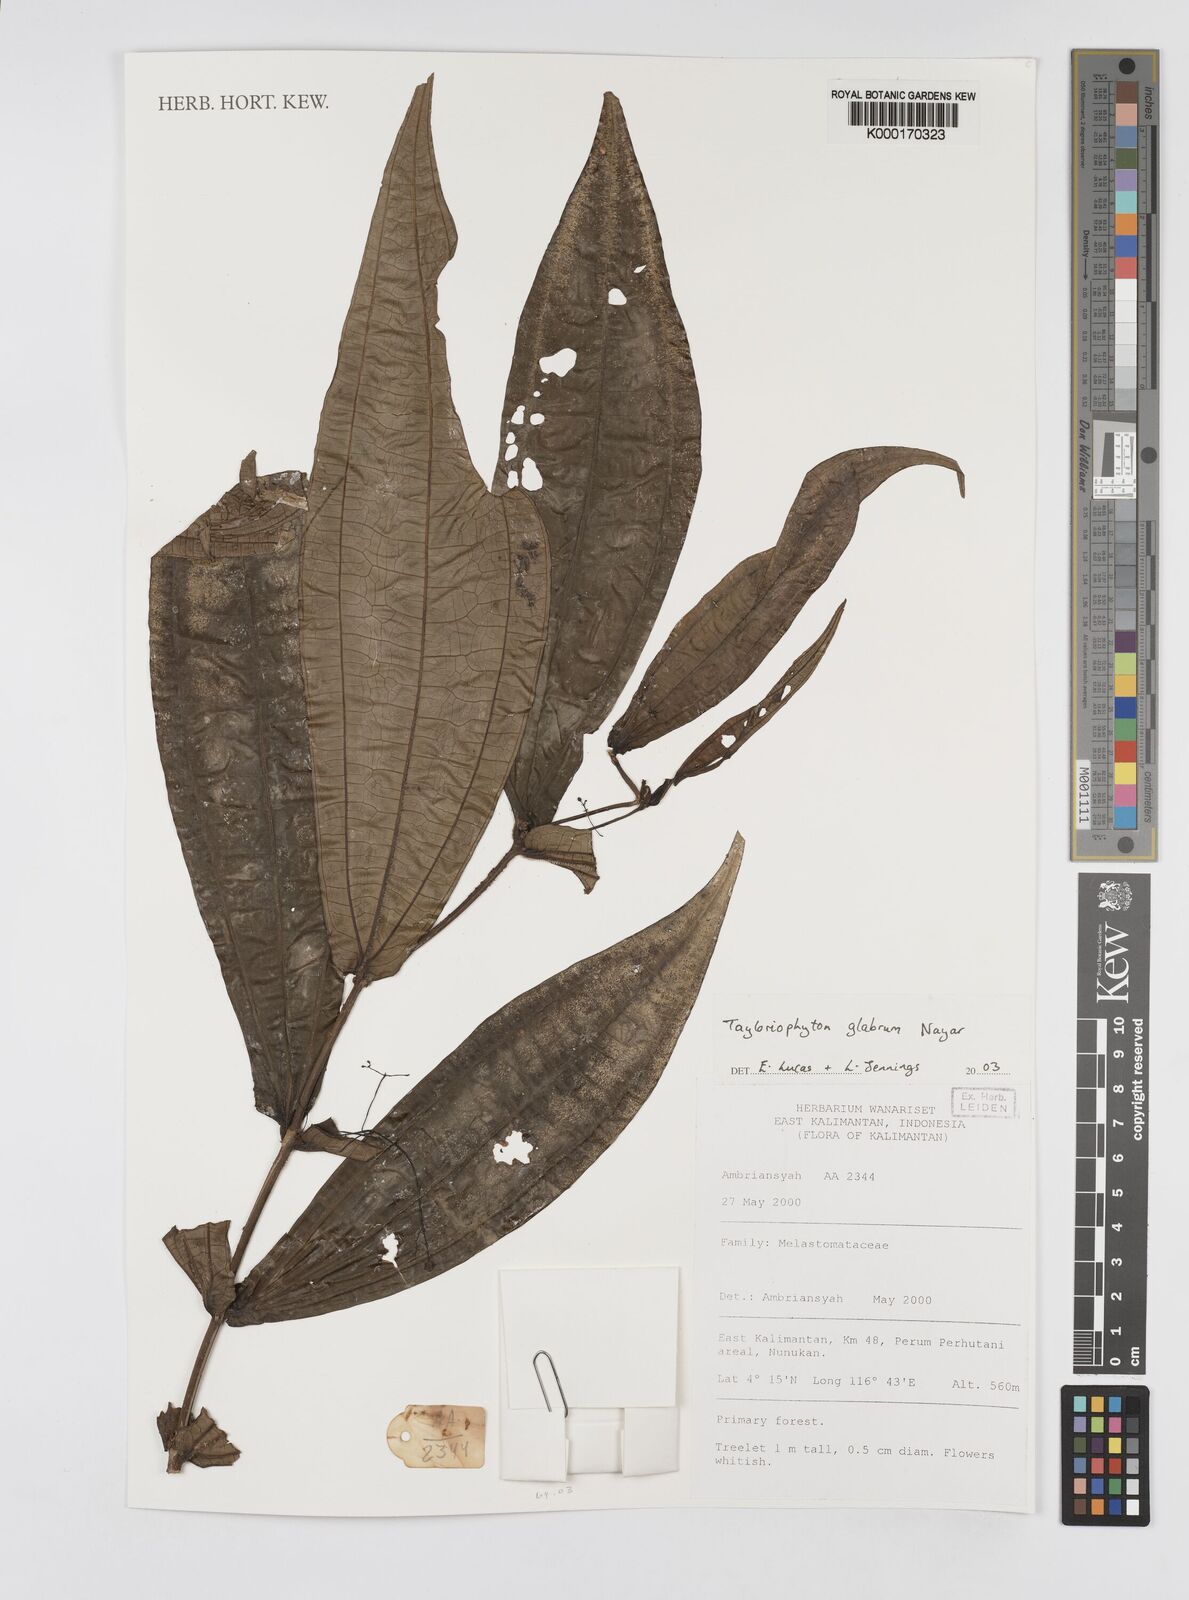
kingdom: Plantae
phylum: Tracheophyta
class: Magnoliopsida
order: Myrtales
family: Melastomataceae
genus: Tayloriophyton
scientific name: Tayloriophyton glabrum
